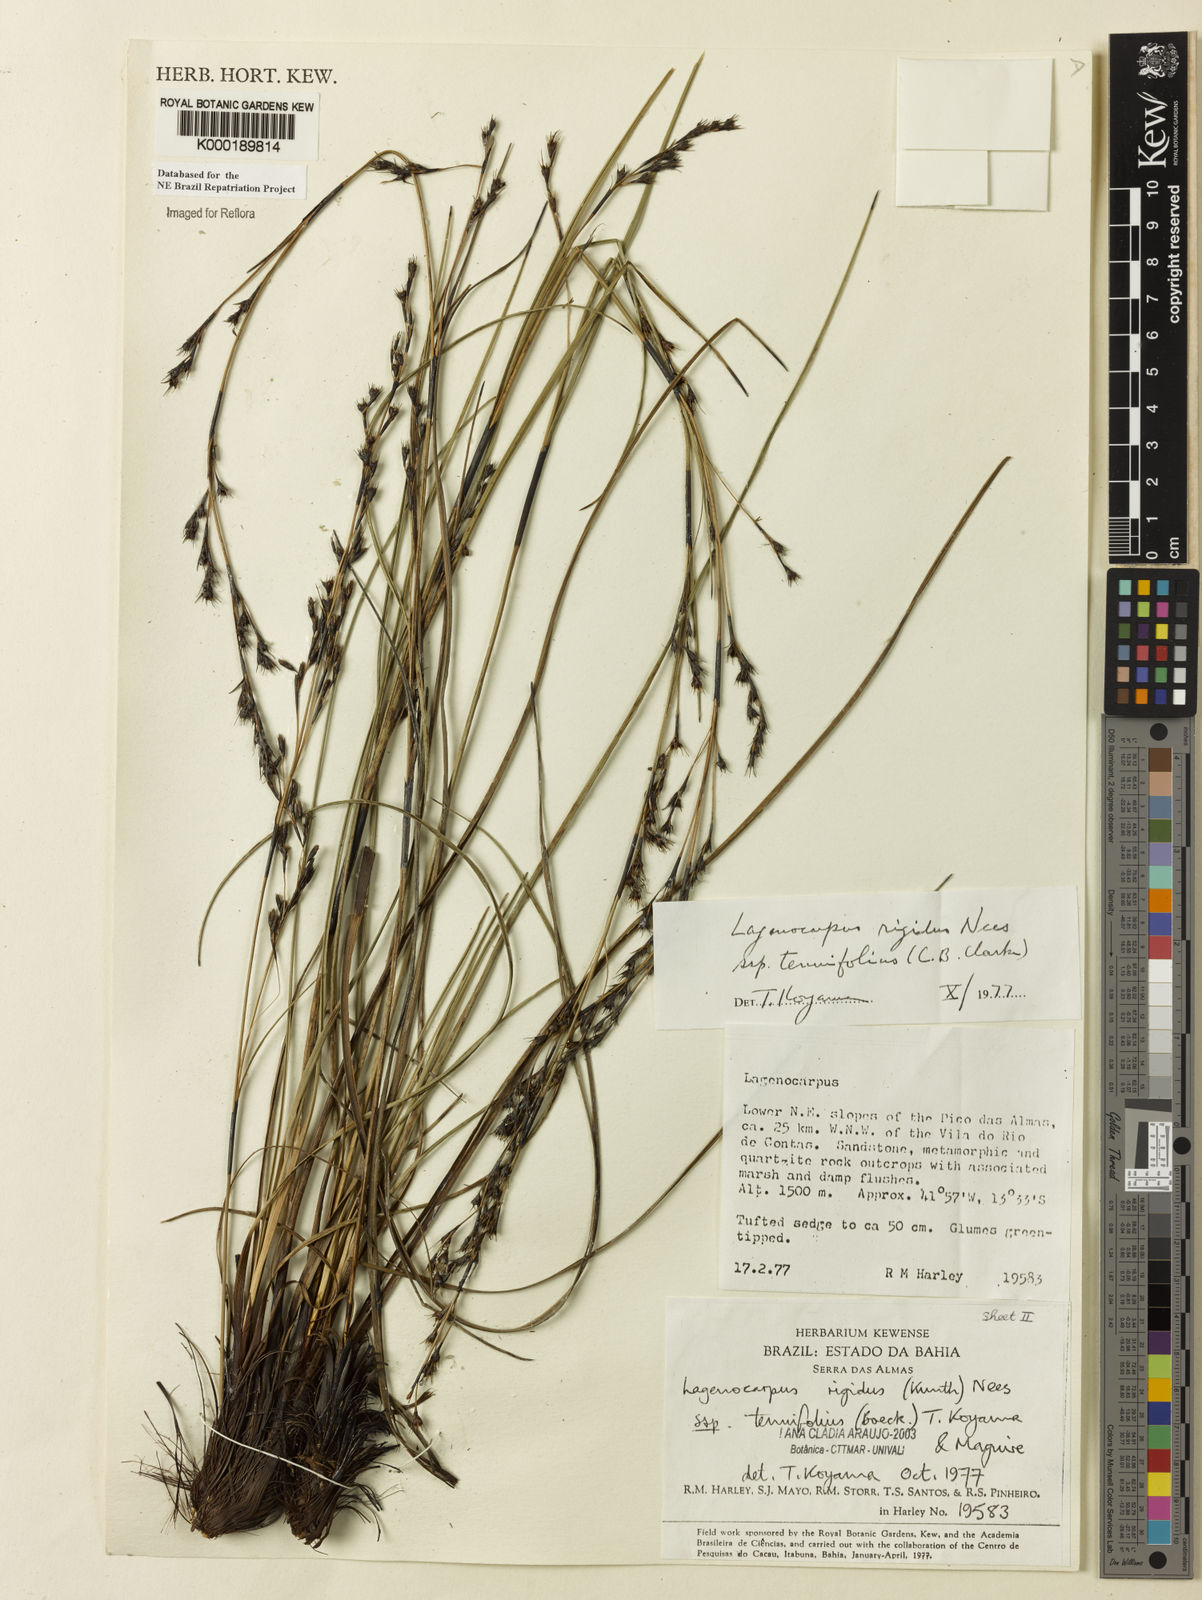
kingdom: Plantae
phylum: Tracheophyta
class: Liliopsida
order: Poales
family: Cyperaceae
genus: Lagenocarpus
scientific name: Lagenocarpus rigidus
